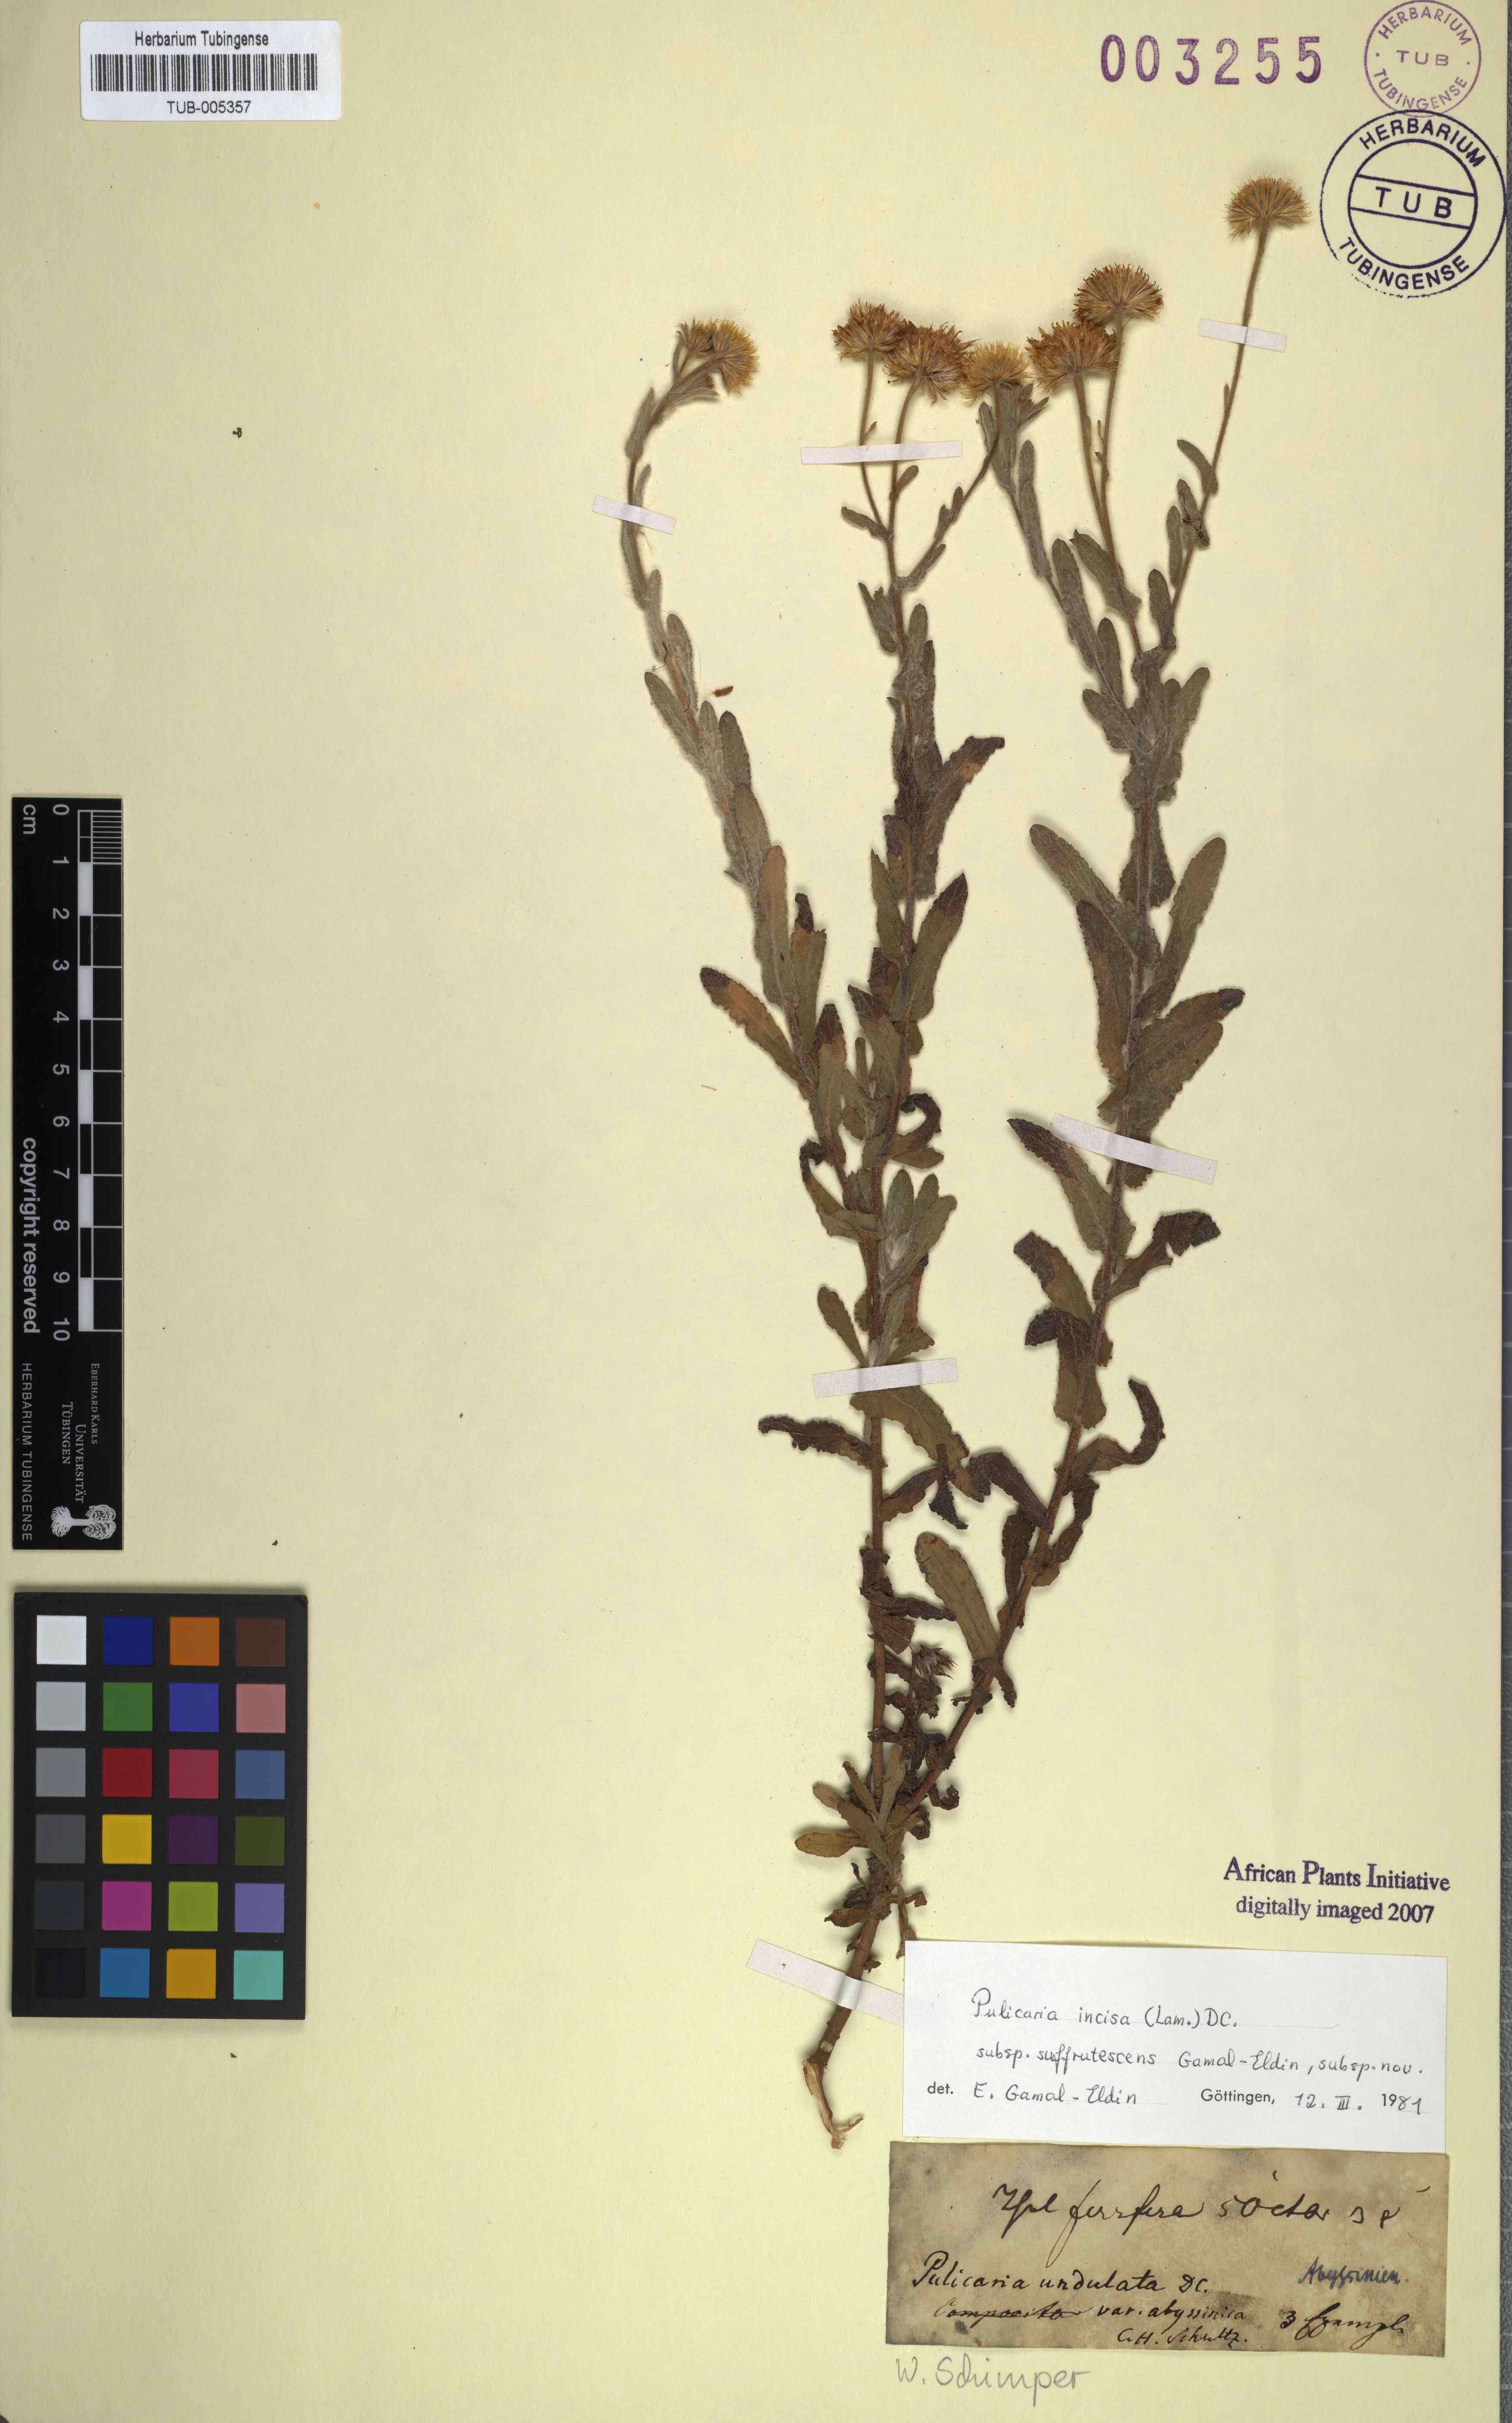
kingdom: Plantae
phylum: Tracheophyta
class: Magnoliopsida
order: Asterales
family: Asteraceae
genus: Pulicaria
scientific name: Pulicaria incisa
